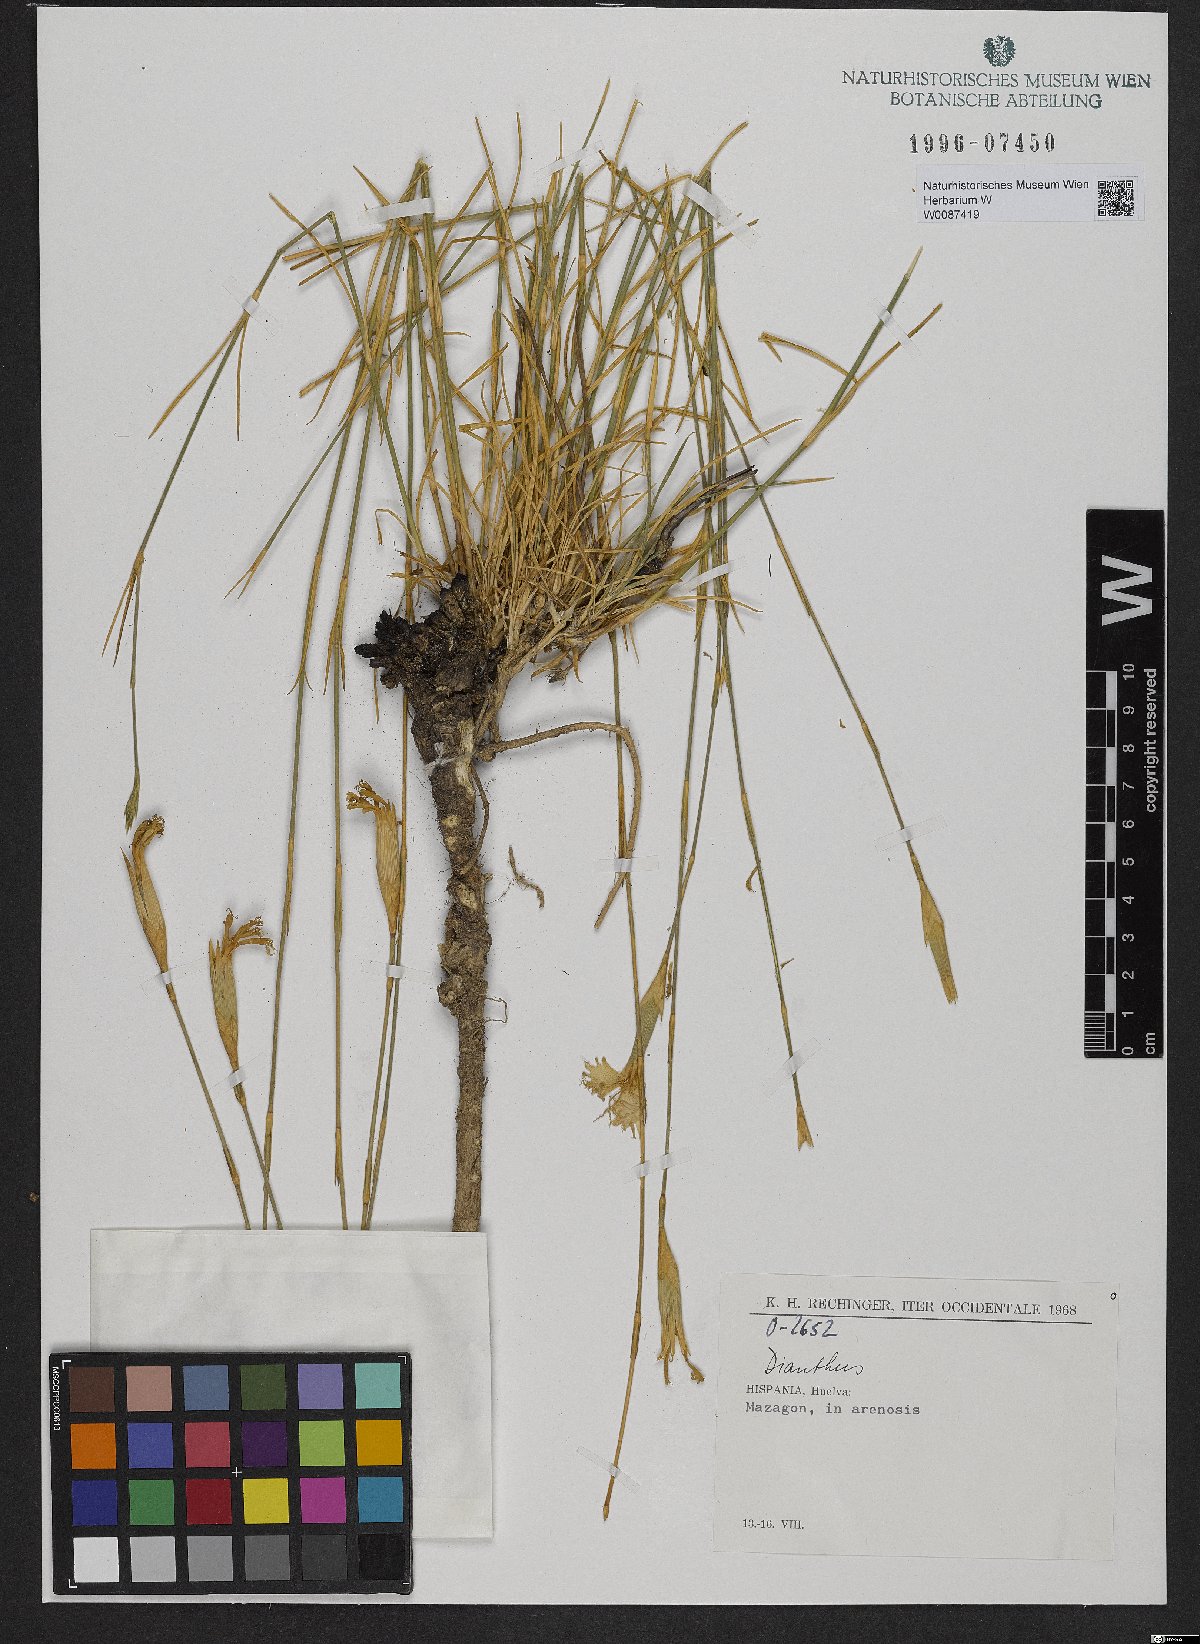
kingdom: Plantae
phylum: Tracheophyta
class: Magnoliopsida
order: Caryophyllales
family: Caryophyllaceae
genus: Dianthus
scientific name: Dianthus
